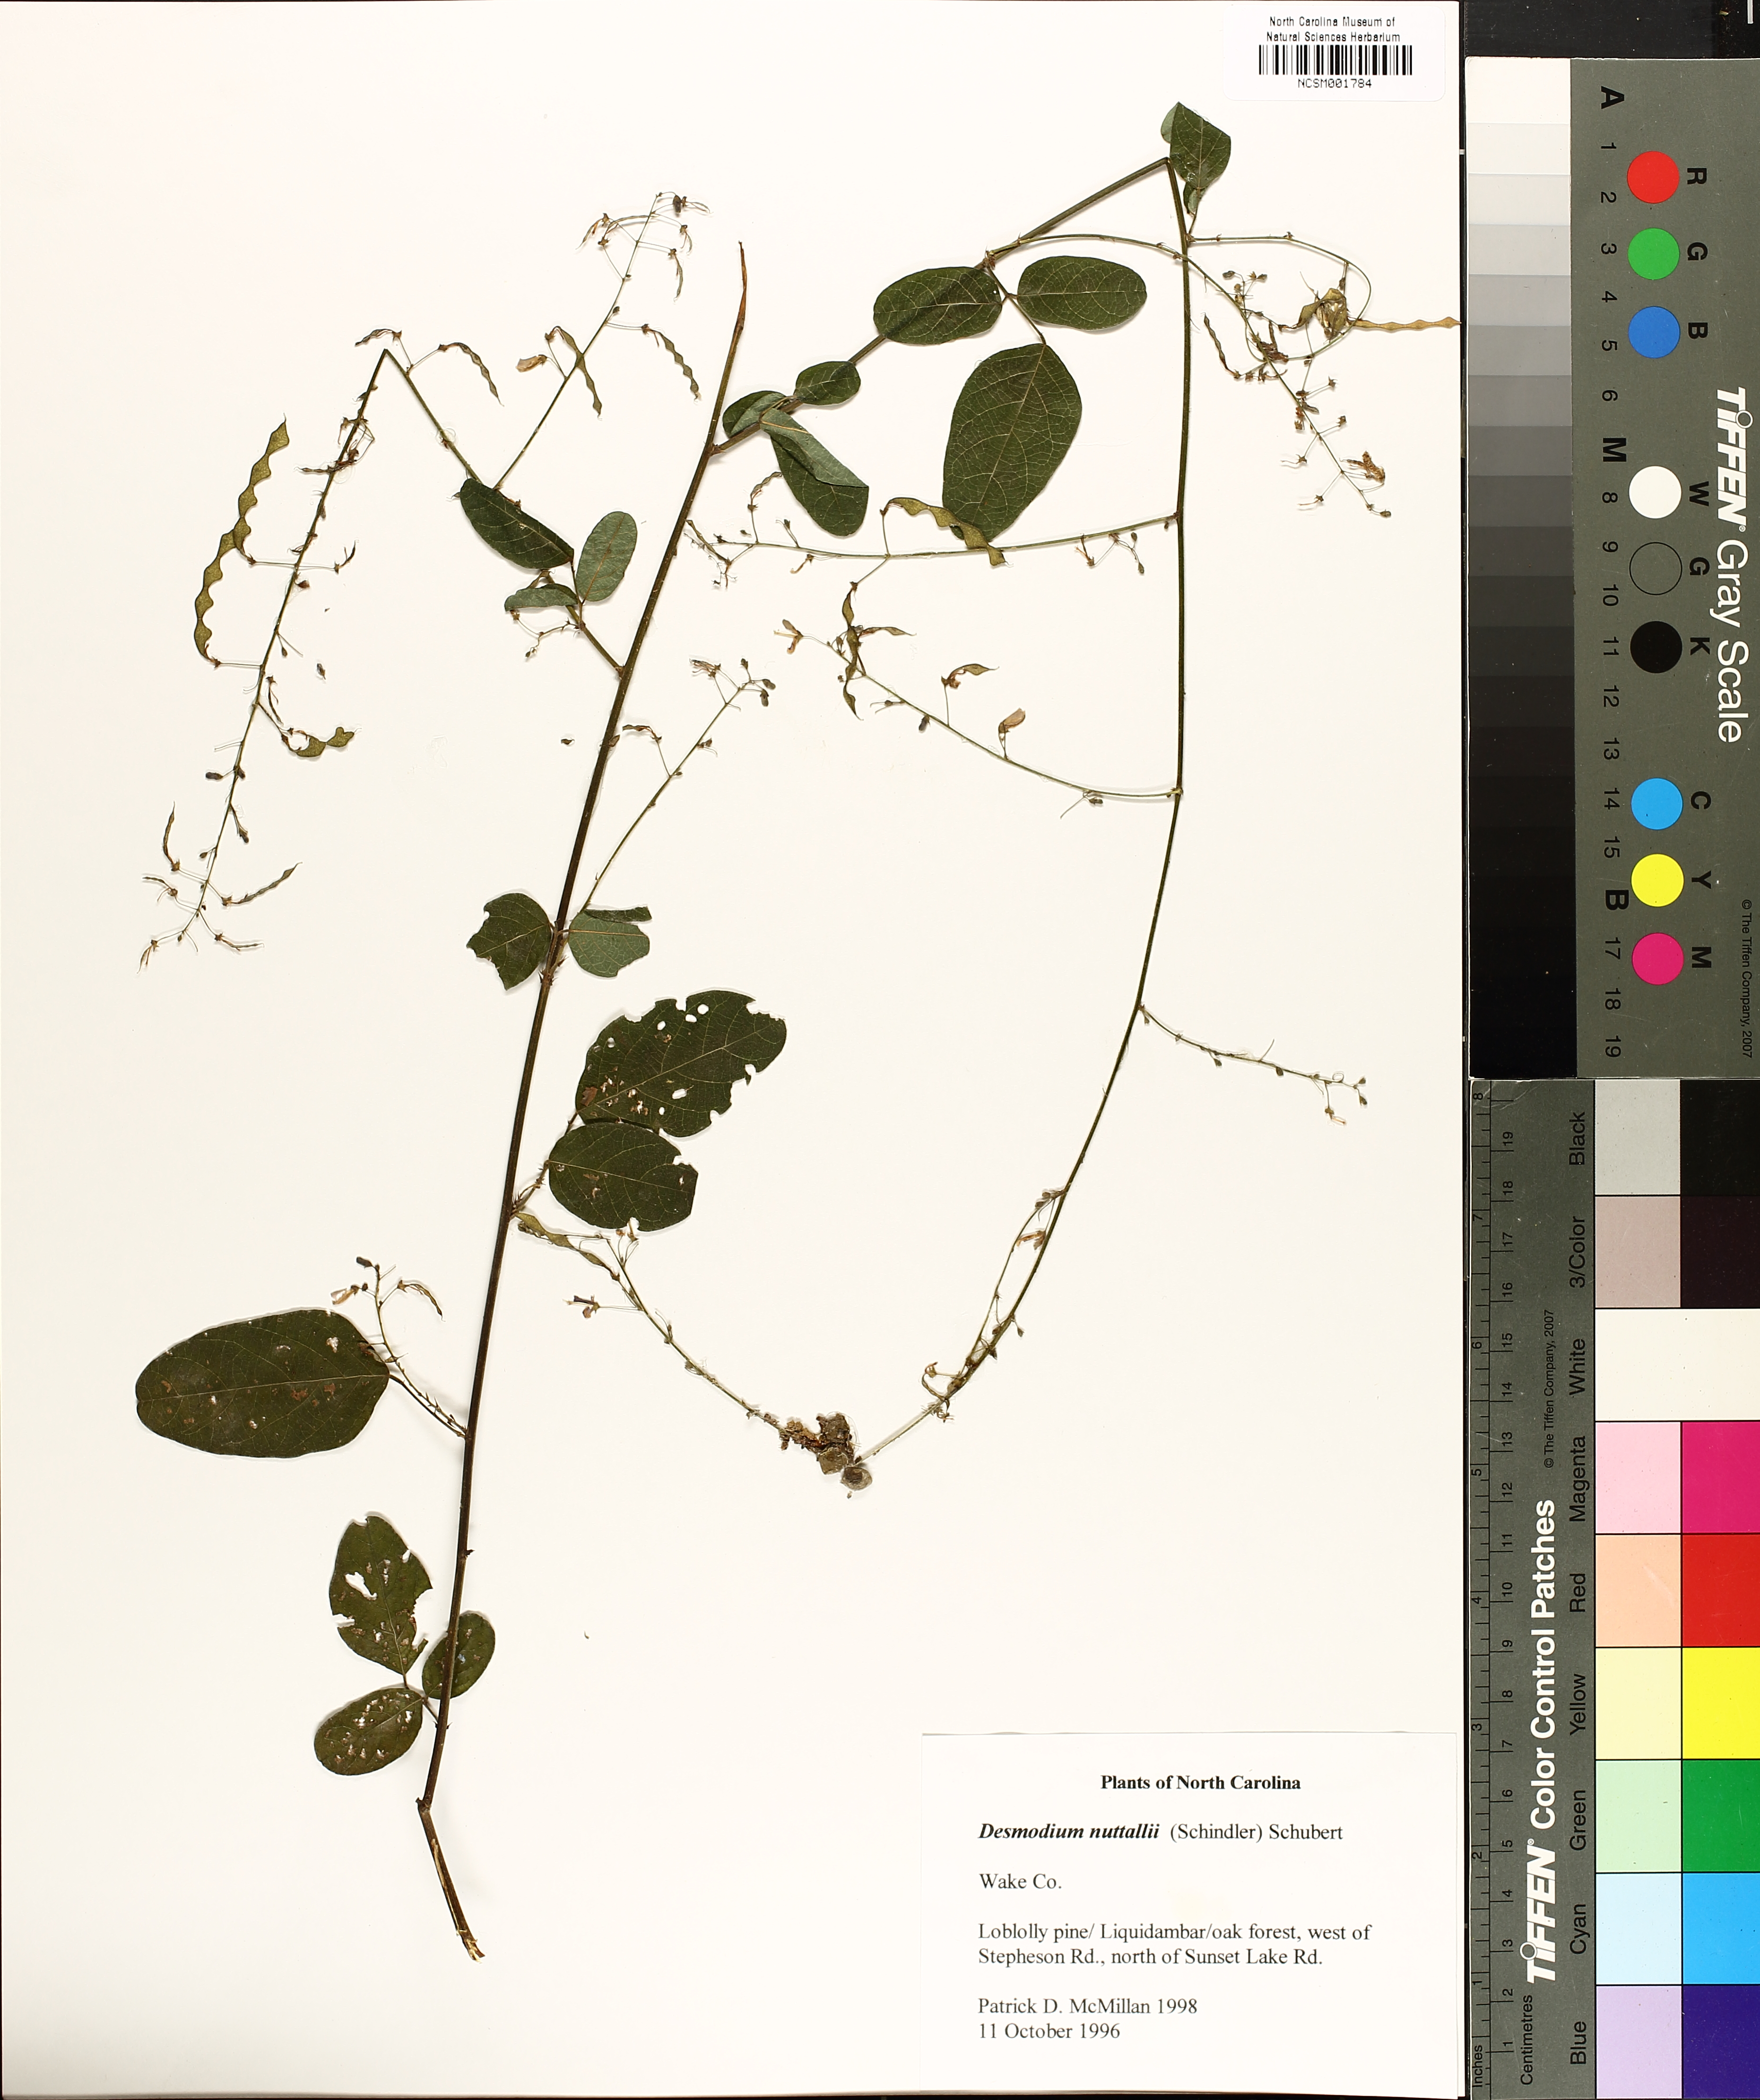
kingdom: Plantae
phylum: Tracheophyta
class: Magnoliopsida
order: Fabales
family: Fabaceae
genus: Desmodium
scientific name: Desmodium nuttallii
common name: Nuttall's tick trefoil
